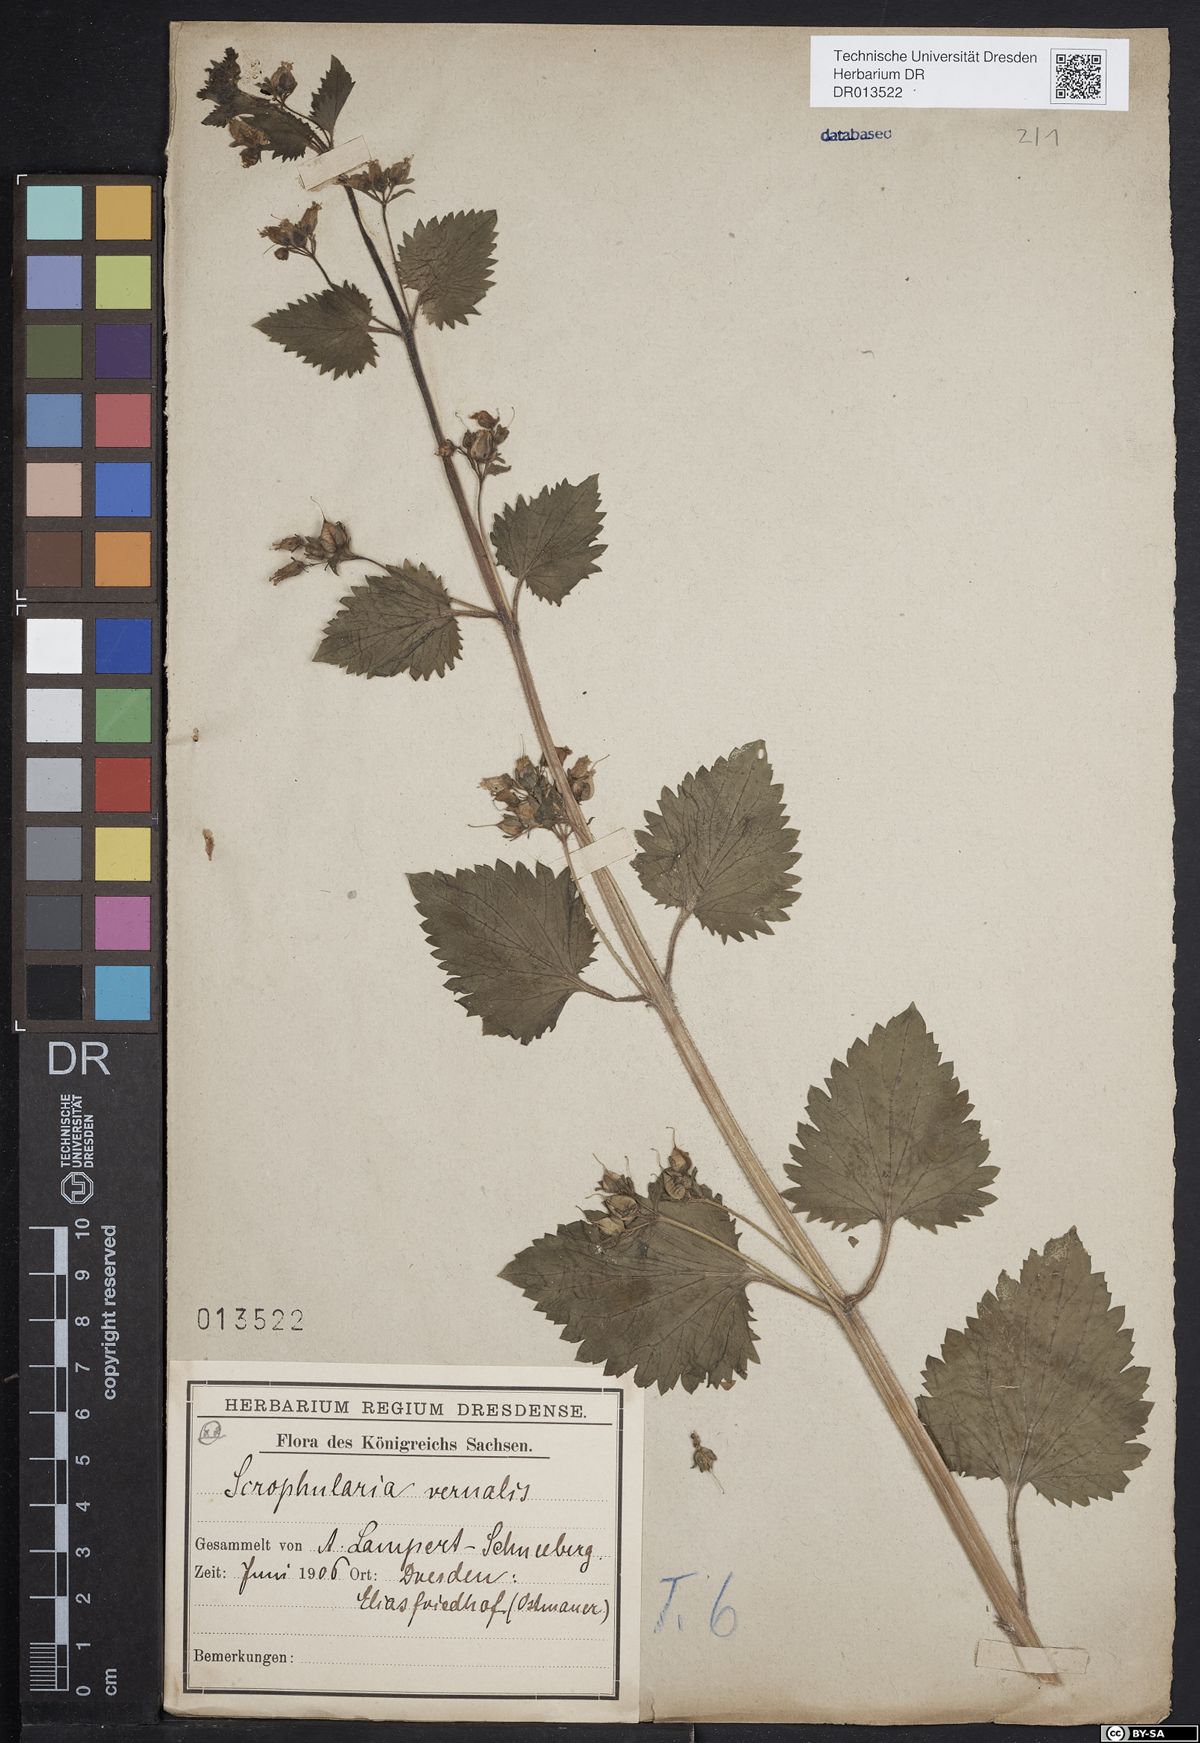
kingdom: Plantae
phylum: Tracheophyta
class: Magnoliopsida
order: Lamiales
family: Scrophulariaceae
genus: Scrophularia
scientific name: Scrophularia vernalis
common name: Yellow figwort
